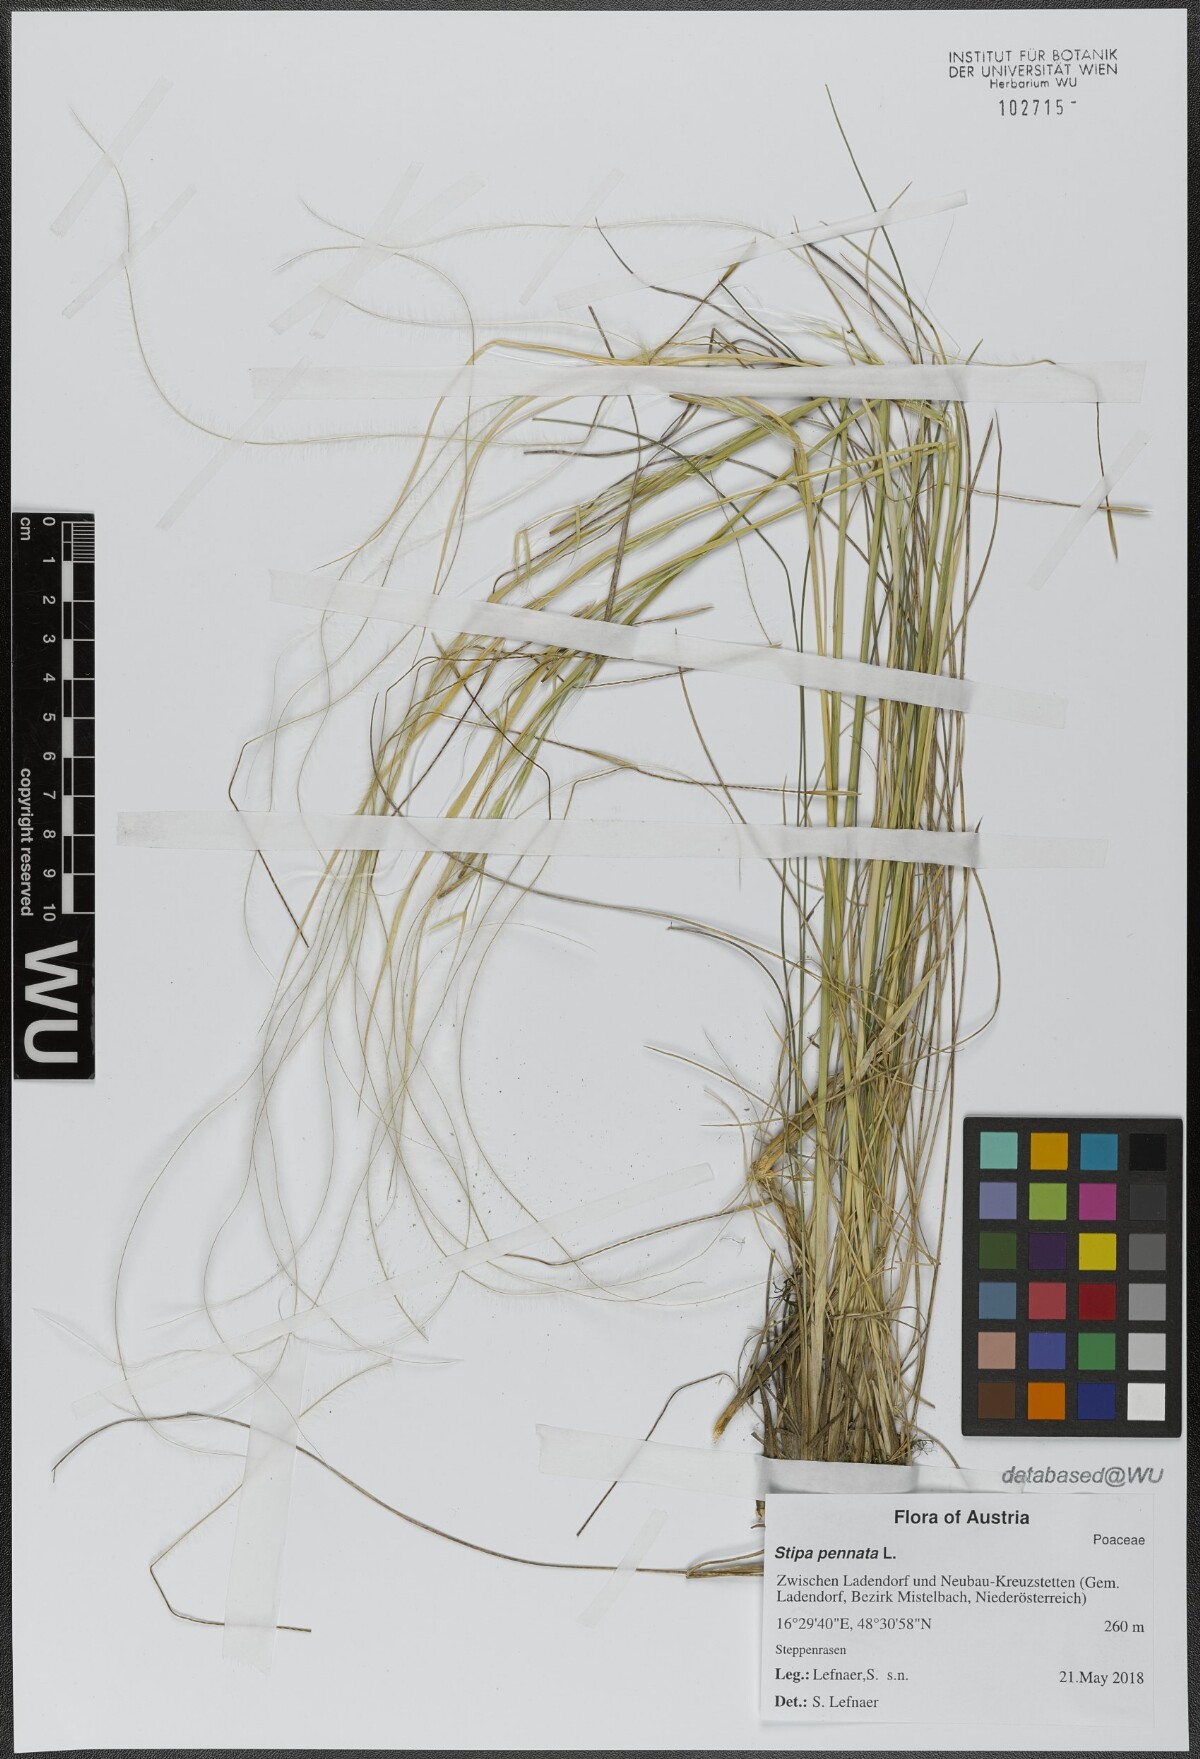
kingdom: Plantae
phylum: Tracheophyta
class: Liliopsida
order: Poales
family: Poaceae
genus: Stipa
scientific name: Stipa pennata
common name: European feather grass
